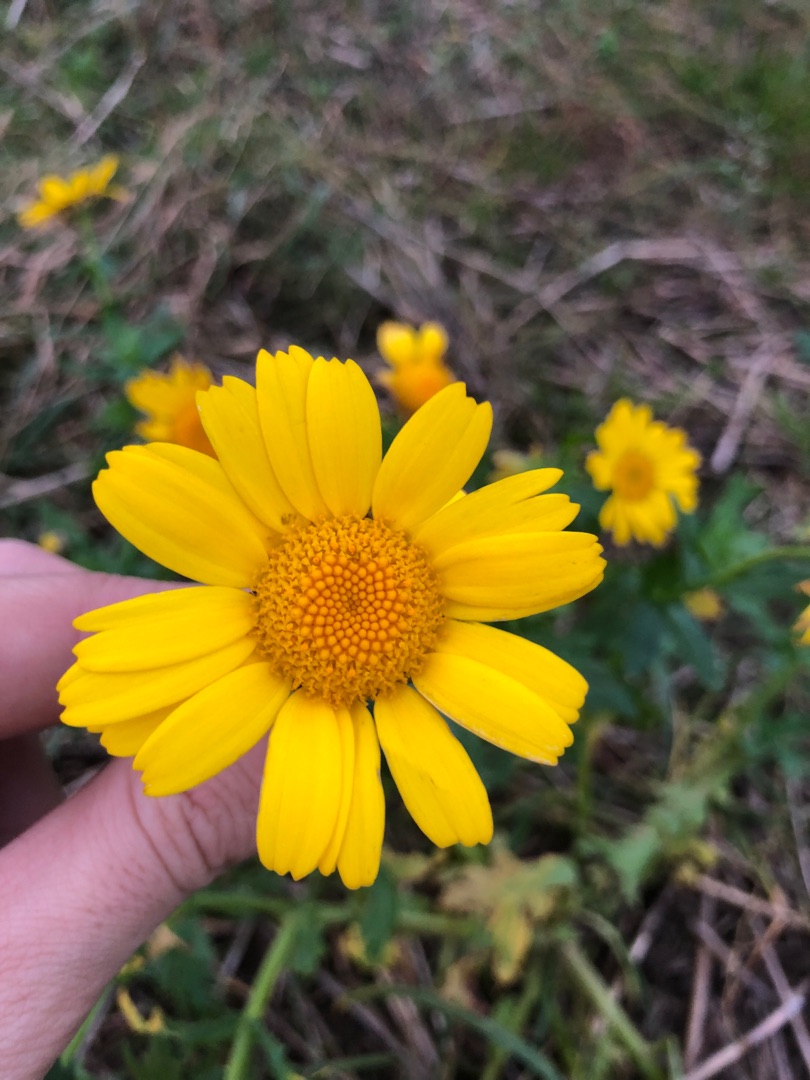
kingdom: Plantae
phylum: Tracheophyta
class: Magnoliopsida
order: Asterales
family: Asteraceae
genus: Glebionis
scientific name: Glebionis segetum
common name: Gul okseøje
